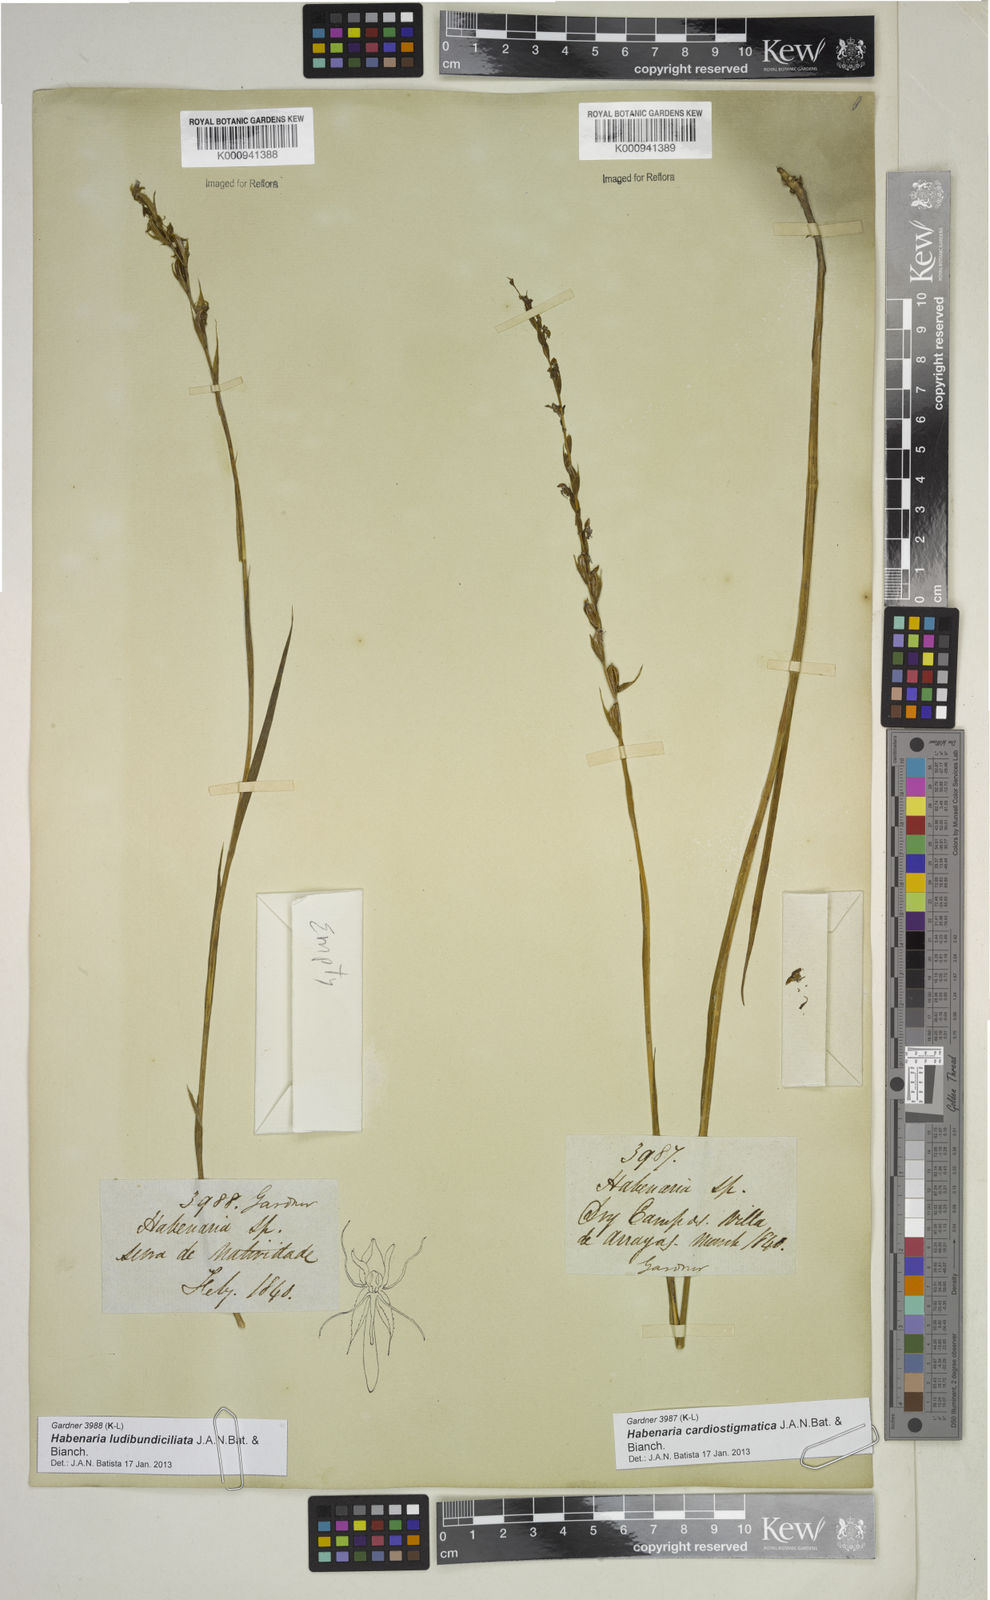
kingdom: Plantae
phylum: Tracheophyta
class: Liliopsida
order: Asparagales
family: Orchidaceae
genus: Habenaria
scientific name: Habenaria cardiostigmatica
